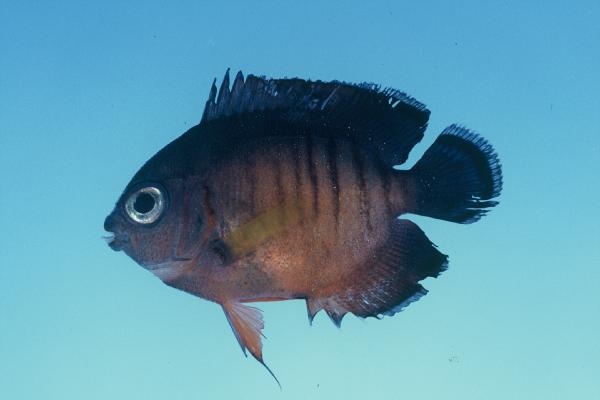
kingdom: Animalia
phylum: Chordata
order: Perciformes
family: Pomacanthidae
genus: Centropyge
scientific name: Centropyge bispinosa
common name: Coral beauty
